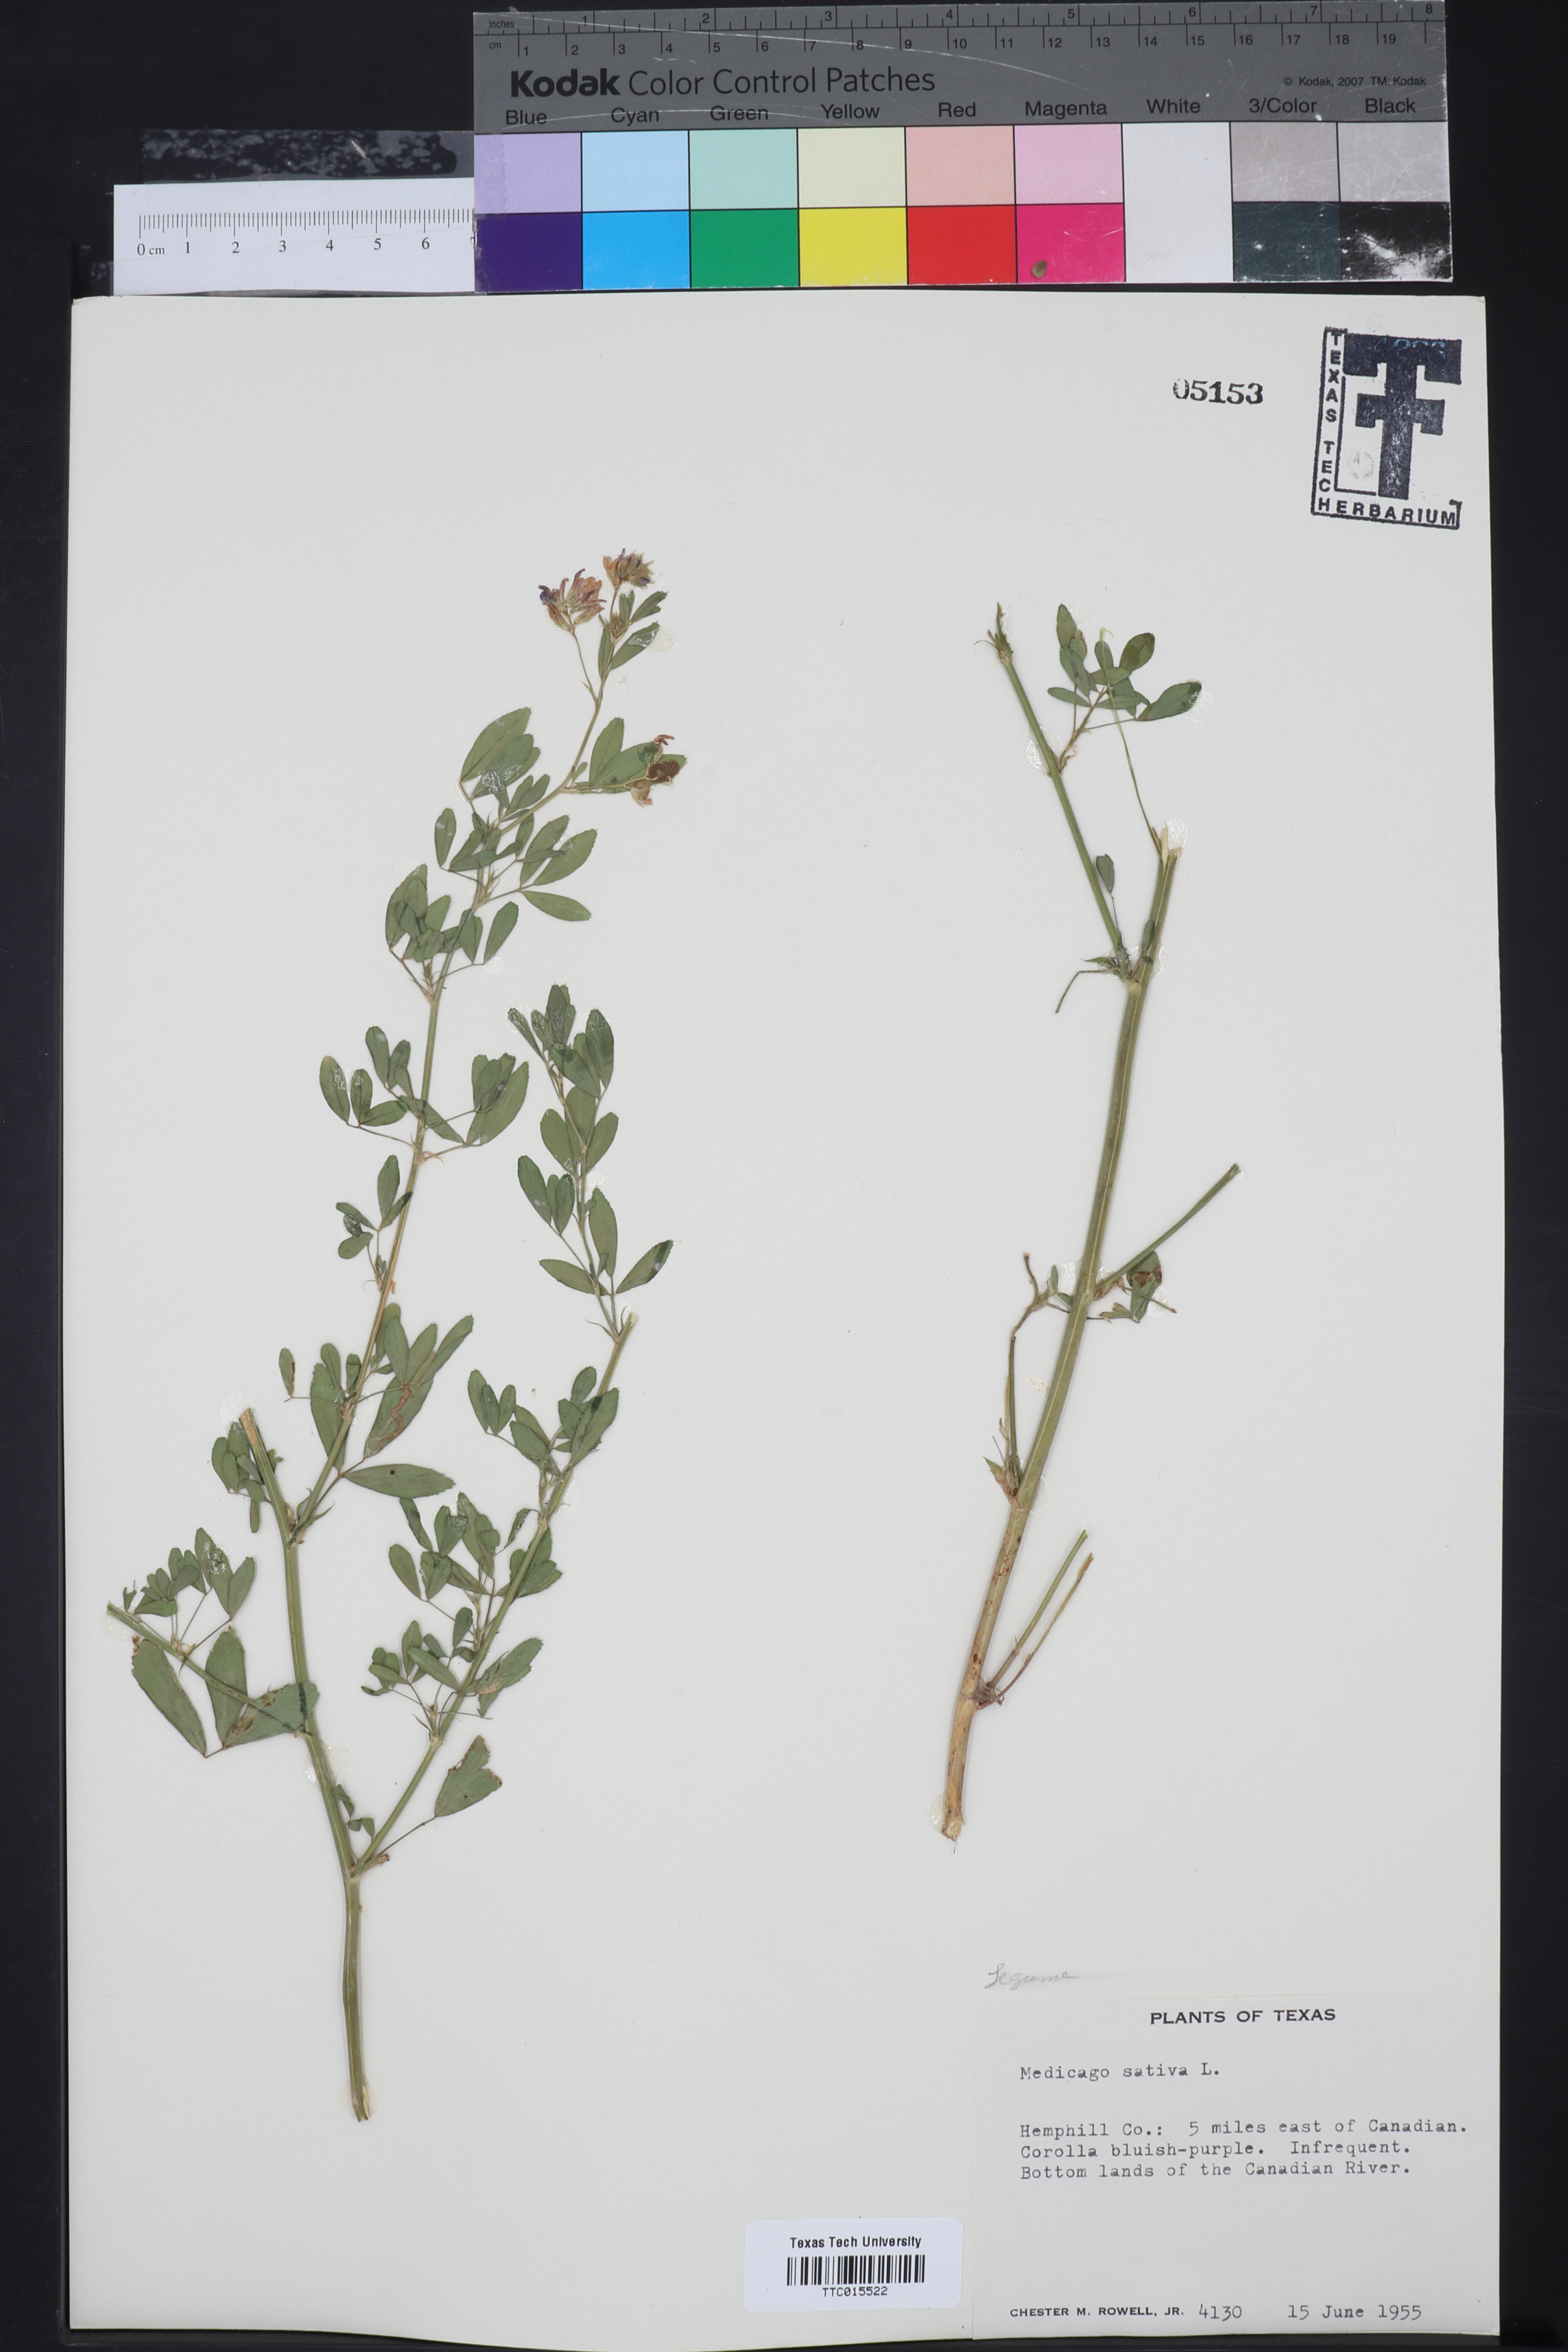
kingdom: Plantae
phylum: Tracheophyta
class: Magnoliopsida
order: Fabales
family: Fabaceae
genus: Medicago
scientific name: Medicago sativa
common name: Alfalfa
